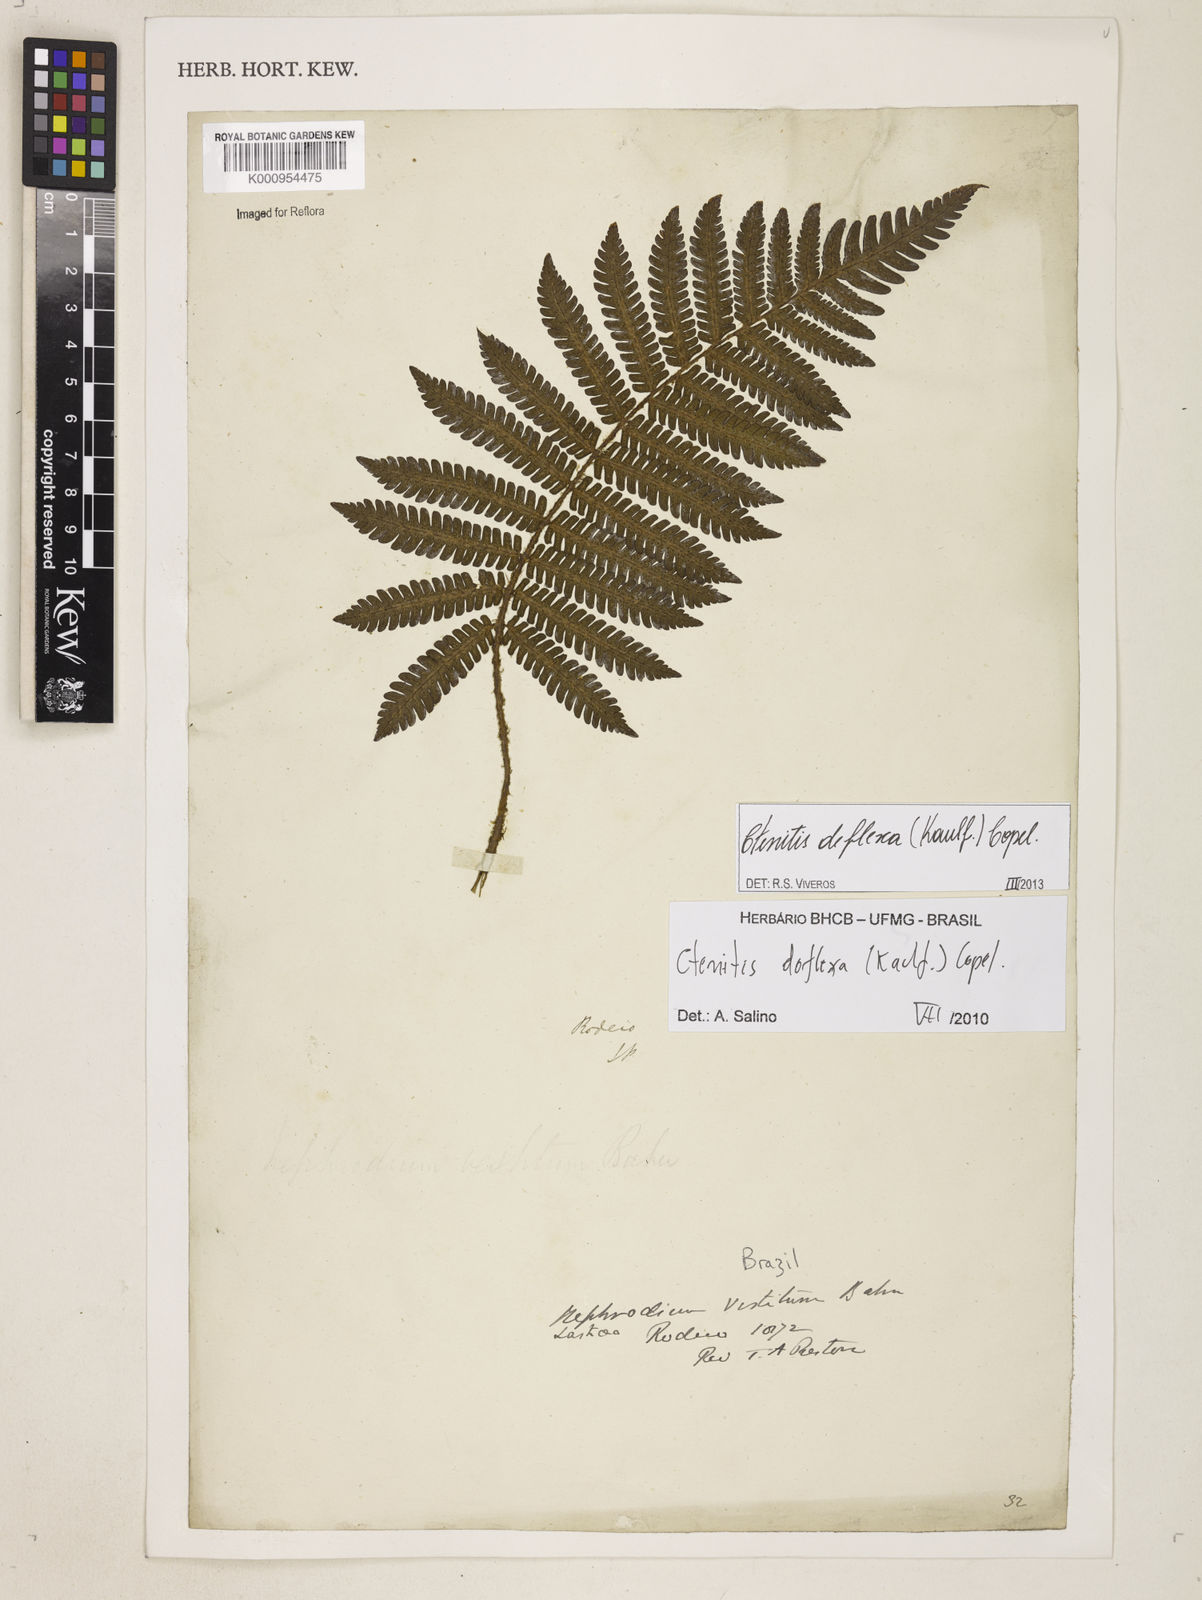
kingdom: Plantae
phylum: Tracheophyta
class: Polypodiopsida
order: Polypodiales
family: Dryopteridaceae
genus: Ctenitis
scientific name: Ctenitis deflexa
